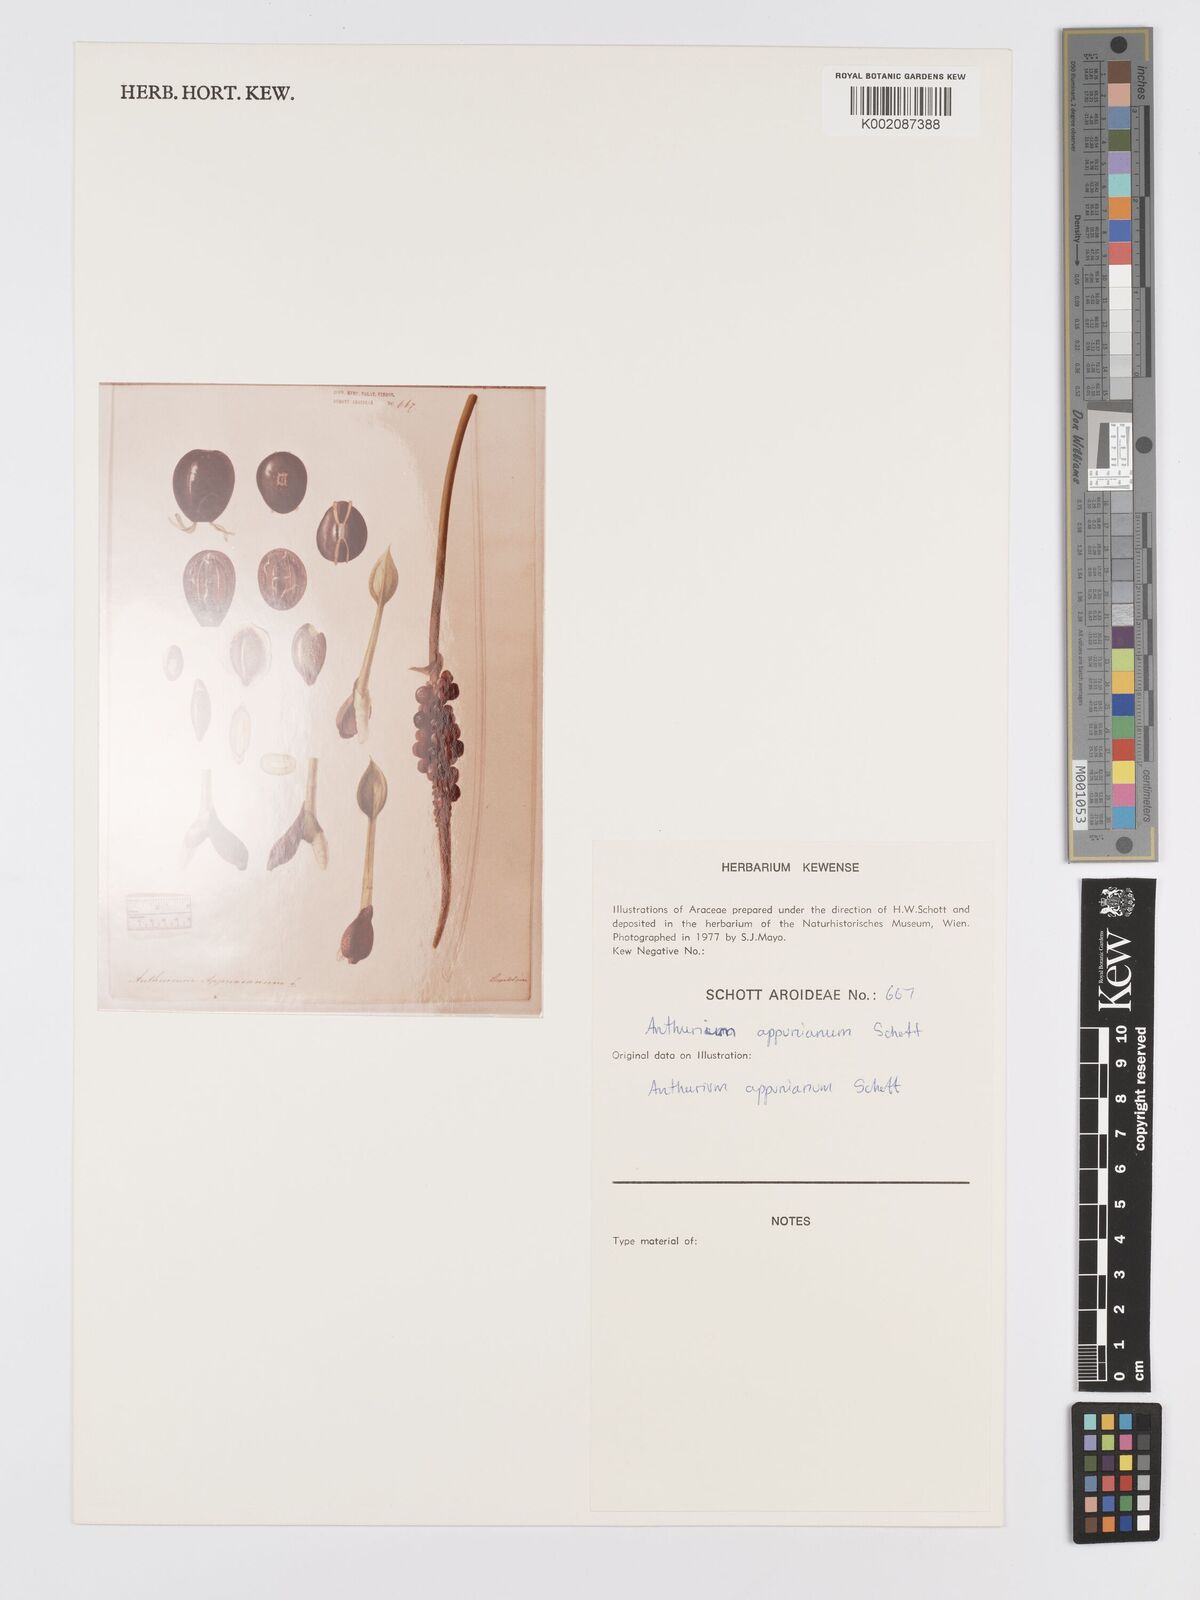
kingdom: Plantae
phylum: Tracheophyta
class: Liliopsida
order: Alismatales
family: Araceae
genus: Anthurium
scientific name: Anthurium cartilagineum
